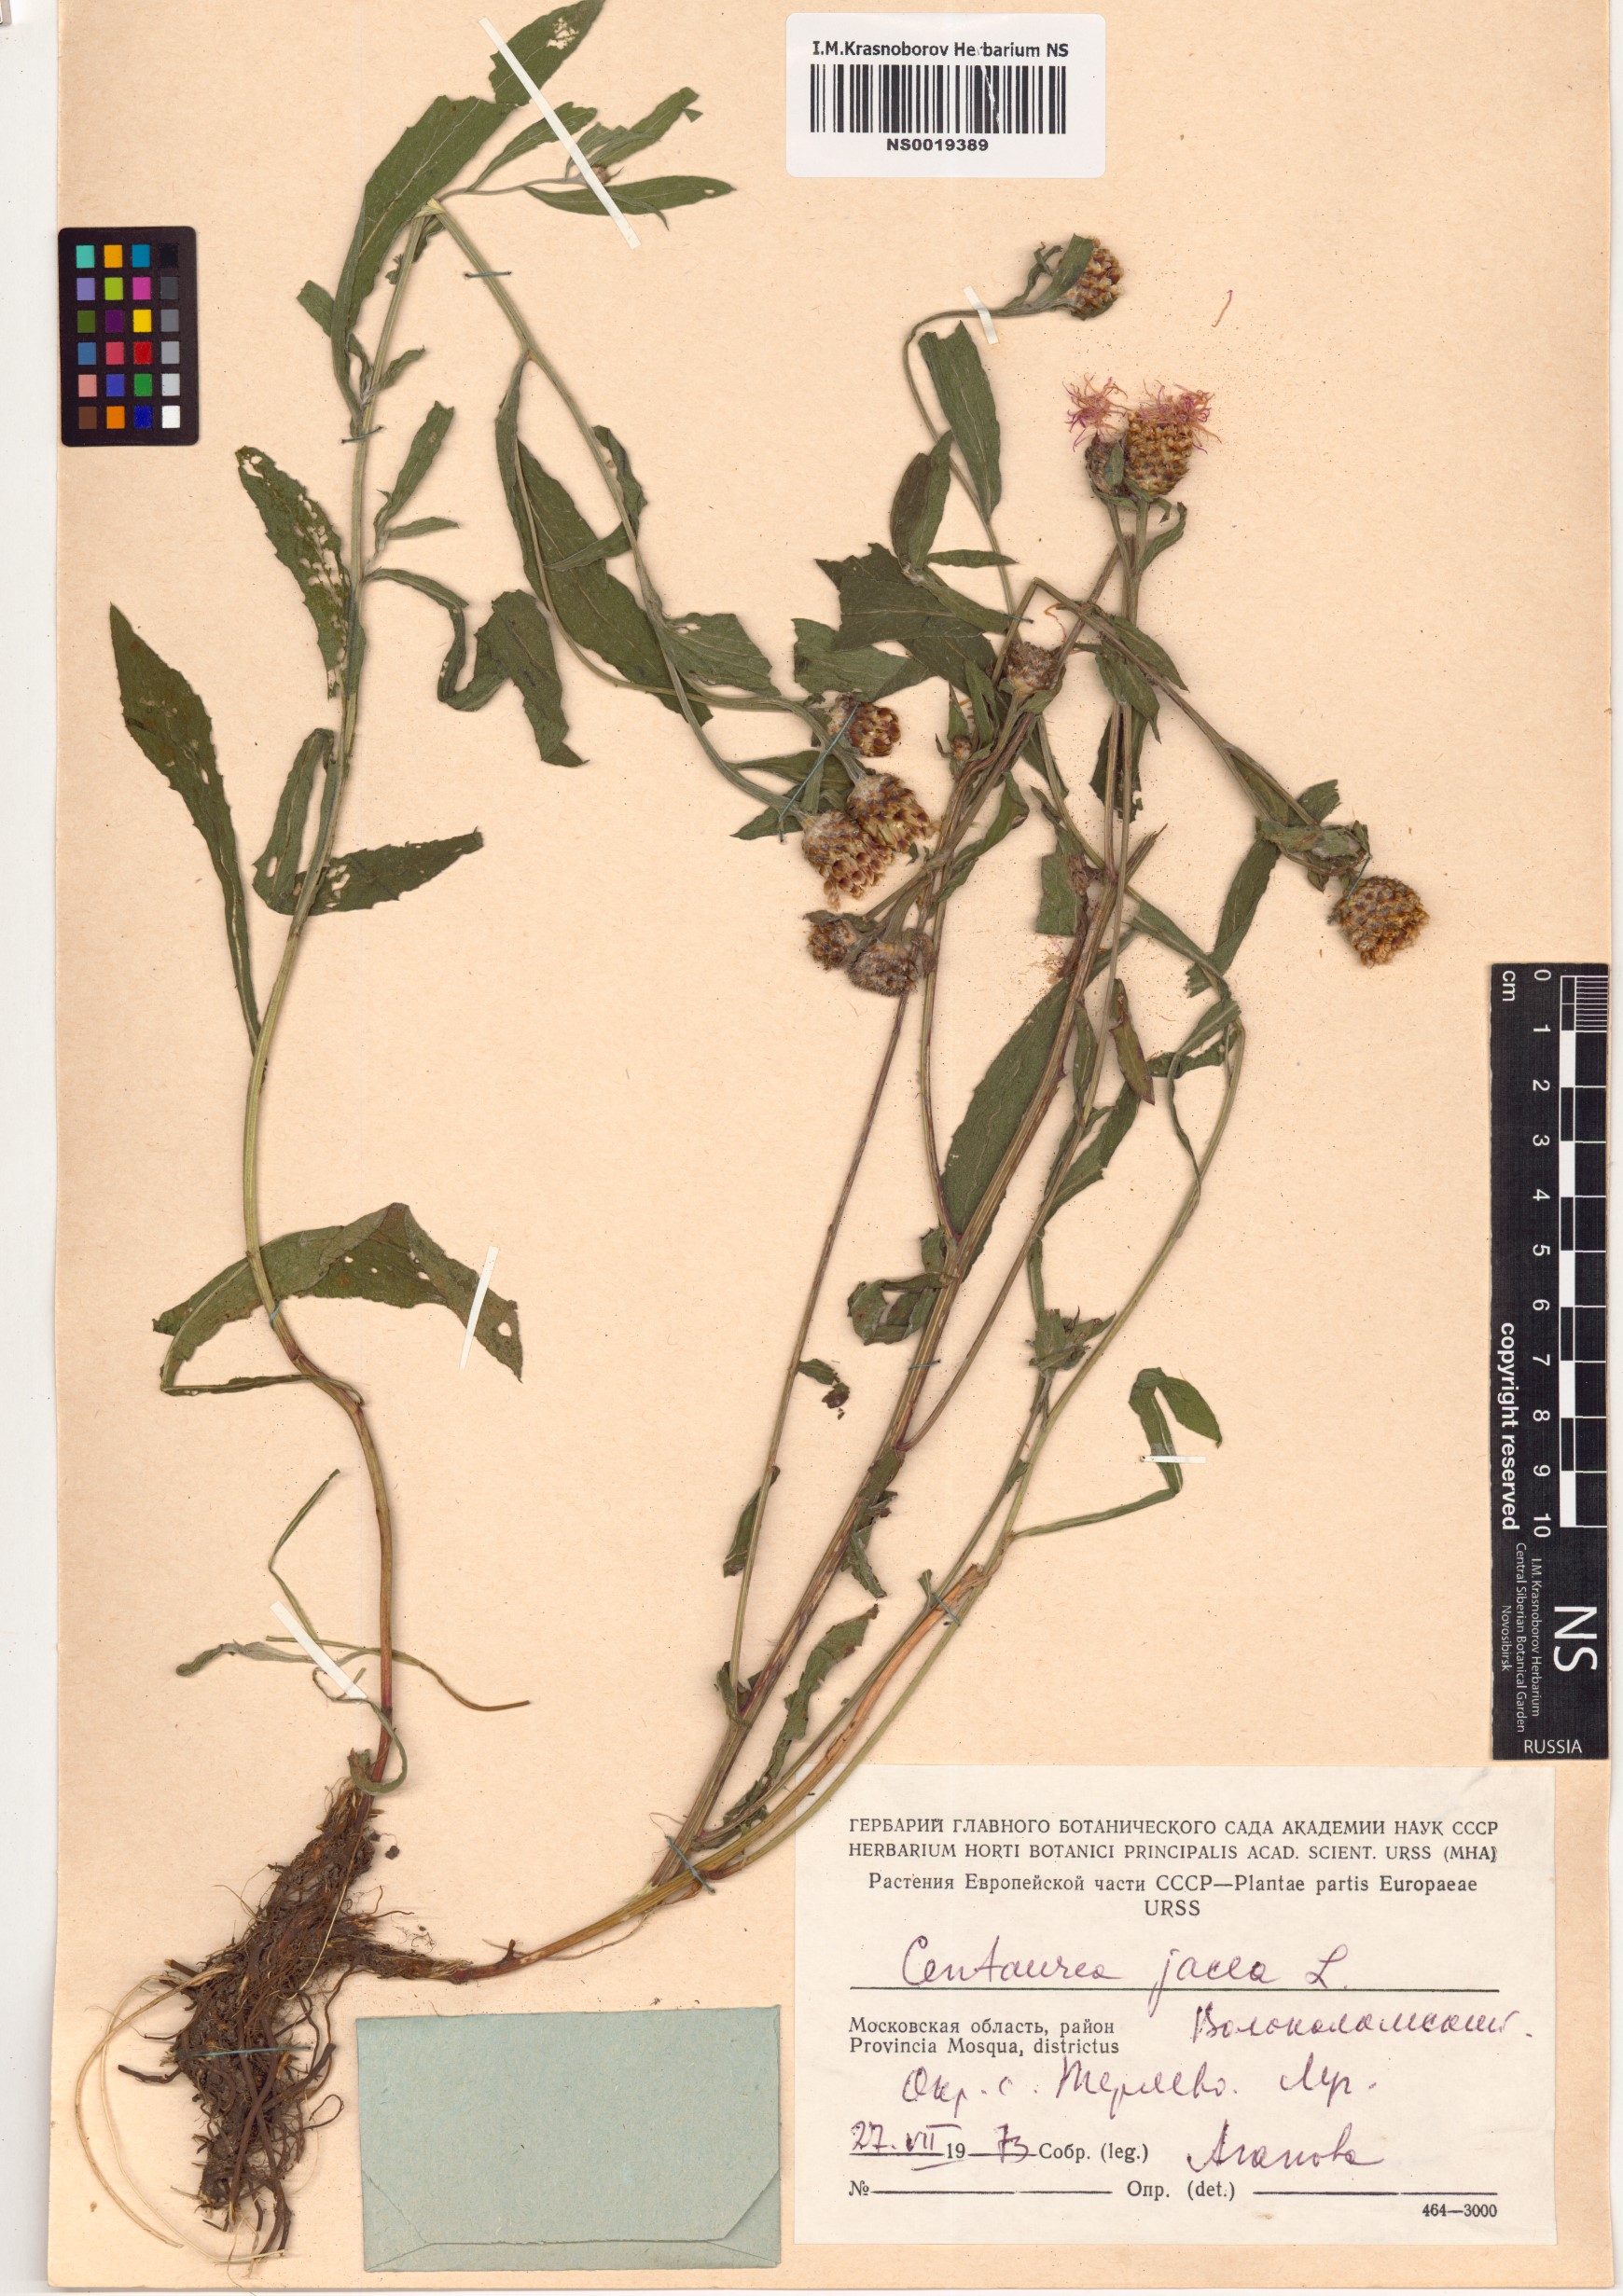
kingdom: Plantae
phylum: Tracheophyta
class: Magnoliopsida
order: Asterales
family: Asteraceae
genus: Centaurea
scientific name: Centaurea jacea
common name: Brown knapweed
